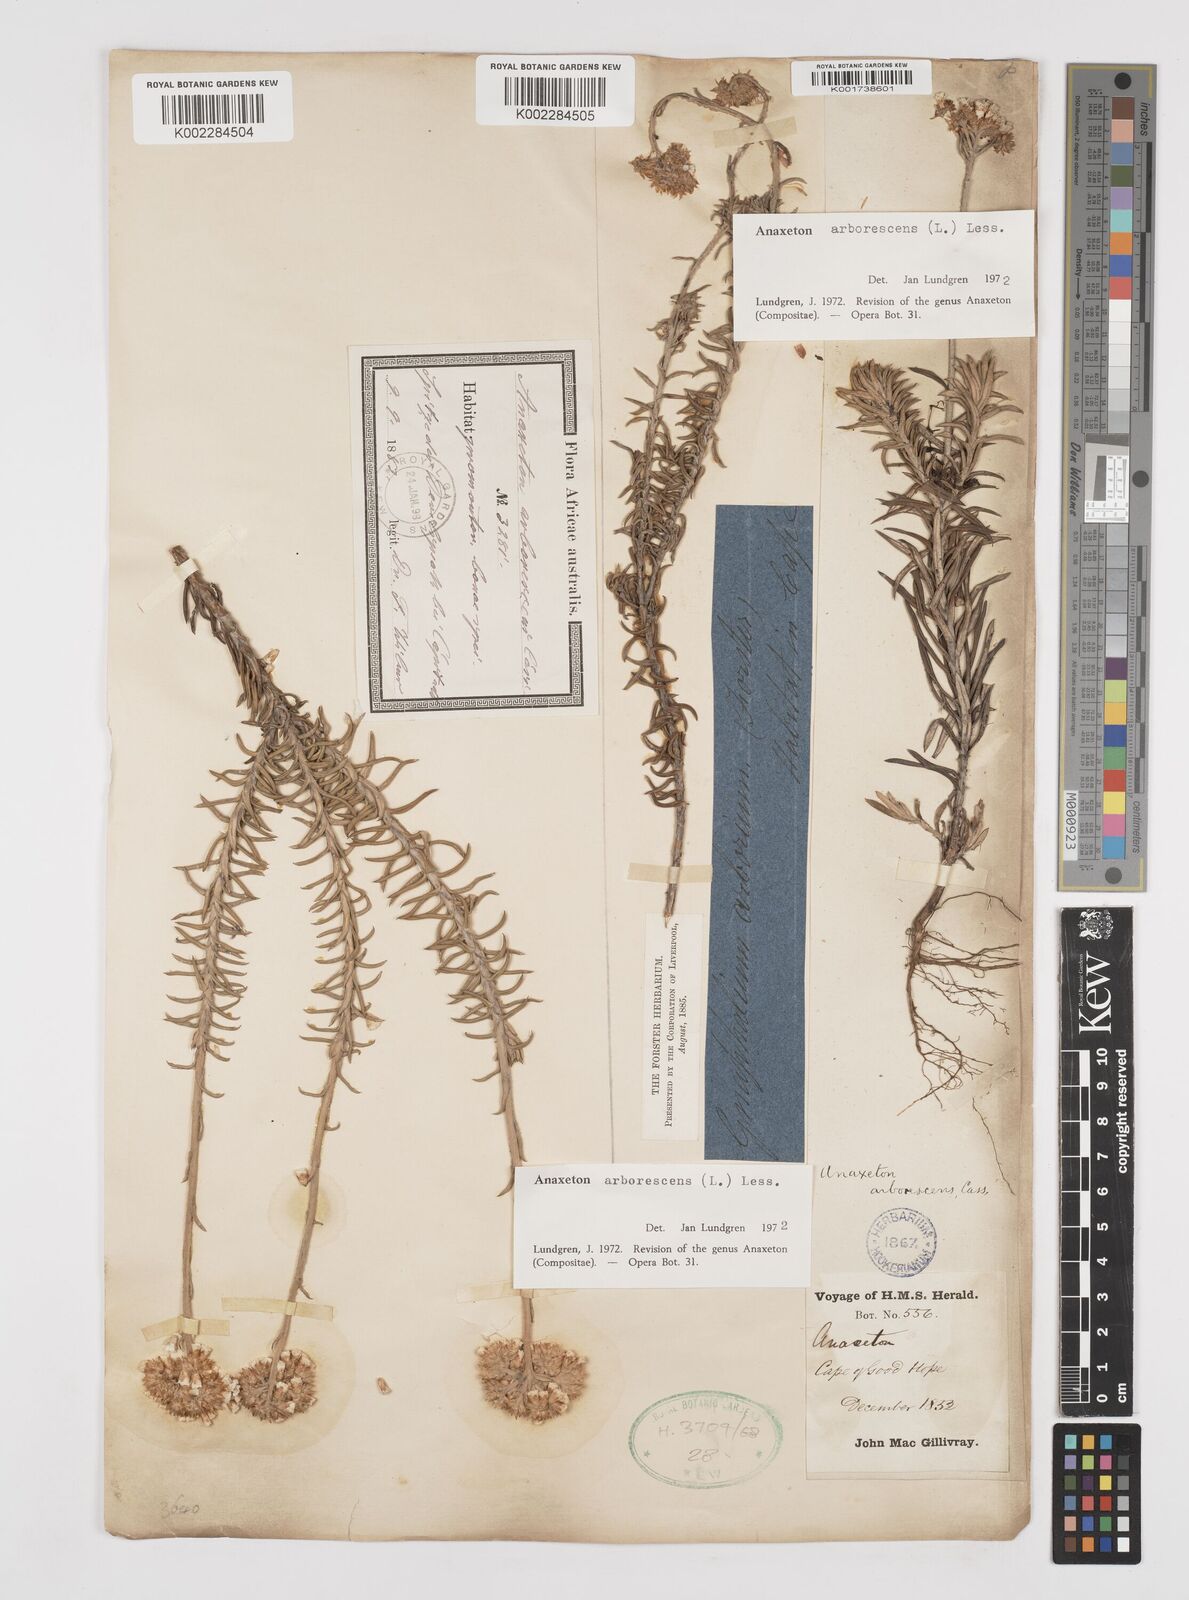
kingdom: Plantae
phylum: Tracheophyta
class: Magnoliopsida
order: Asterales
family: Asteraceae
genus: Anaxeton
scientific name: Anaxeton arborescens
